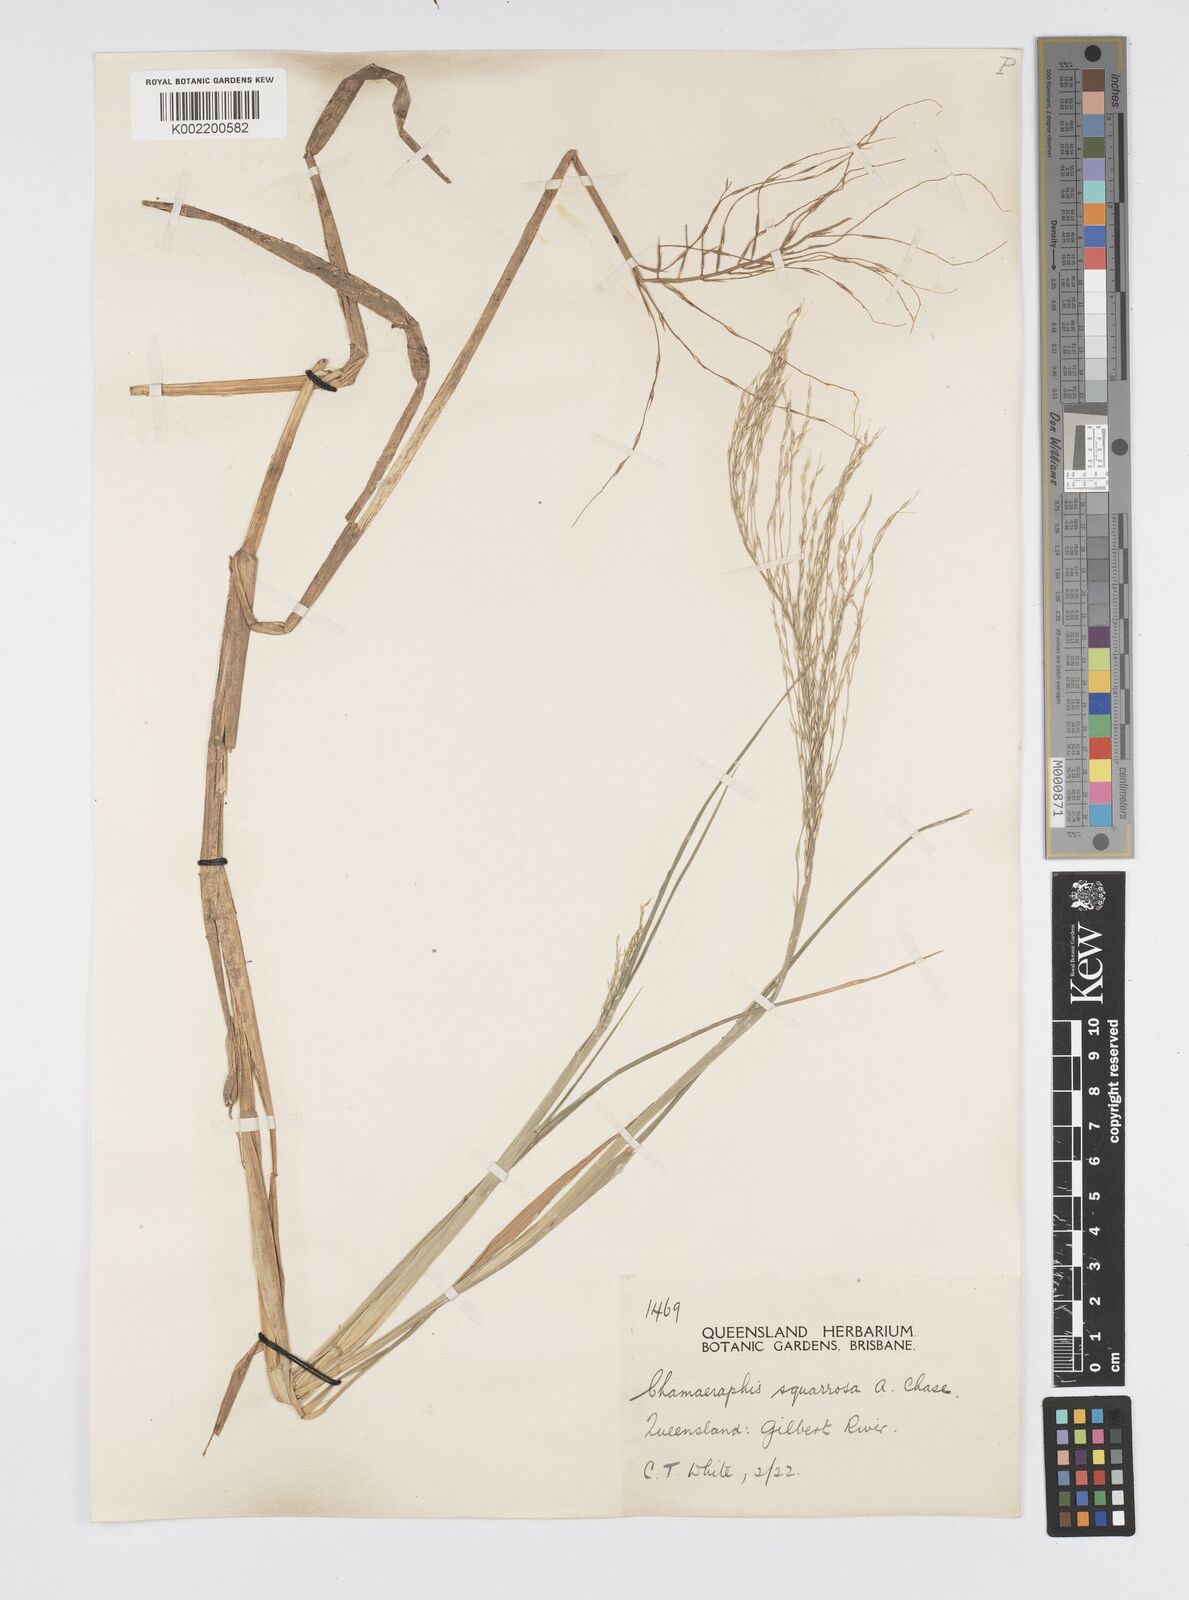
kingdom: Plantae
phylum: Tracheophyta
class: Liliopsida
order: Poales
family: Poaceae
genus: Pseudoraphis
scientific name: Pseudoraphis spinescens
